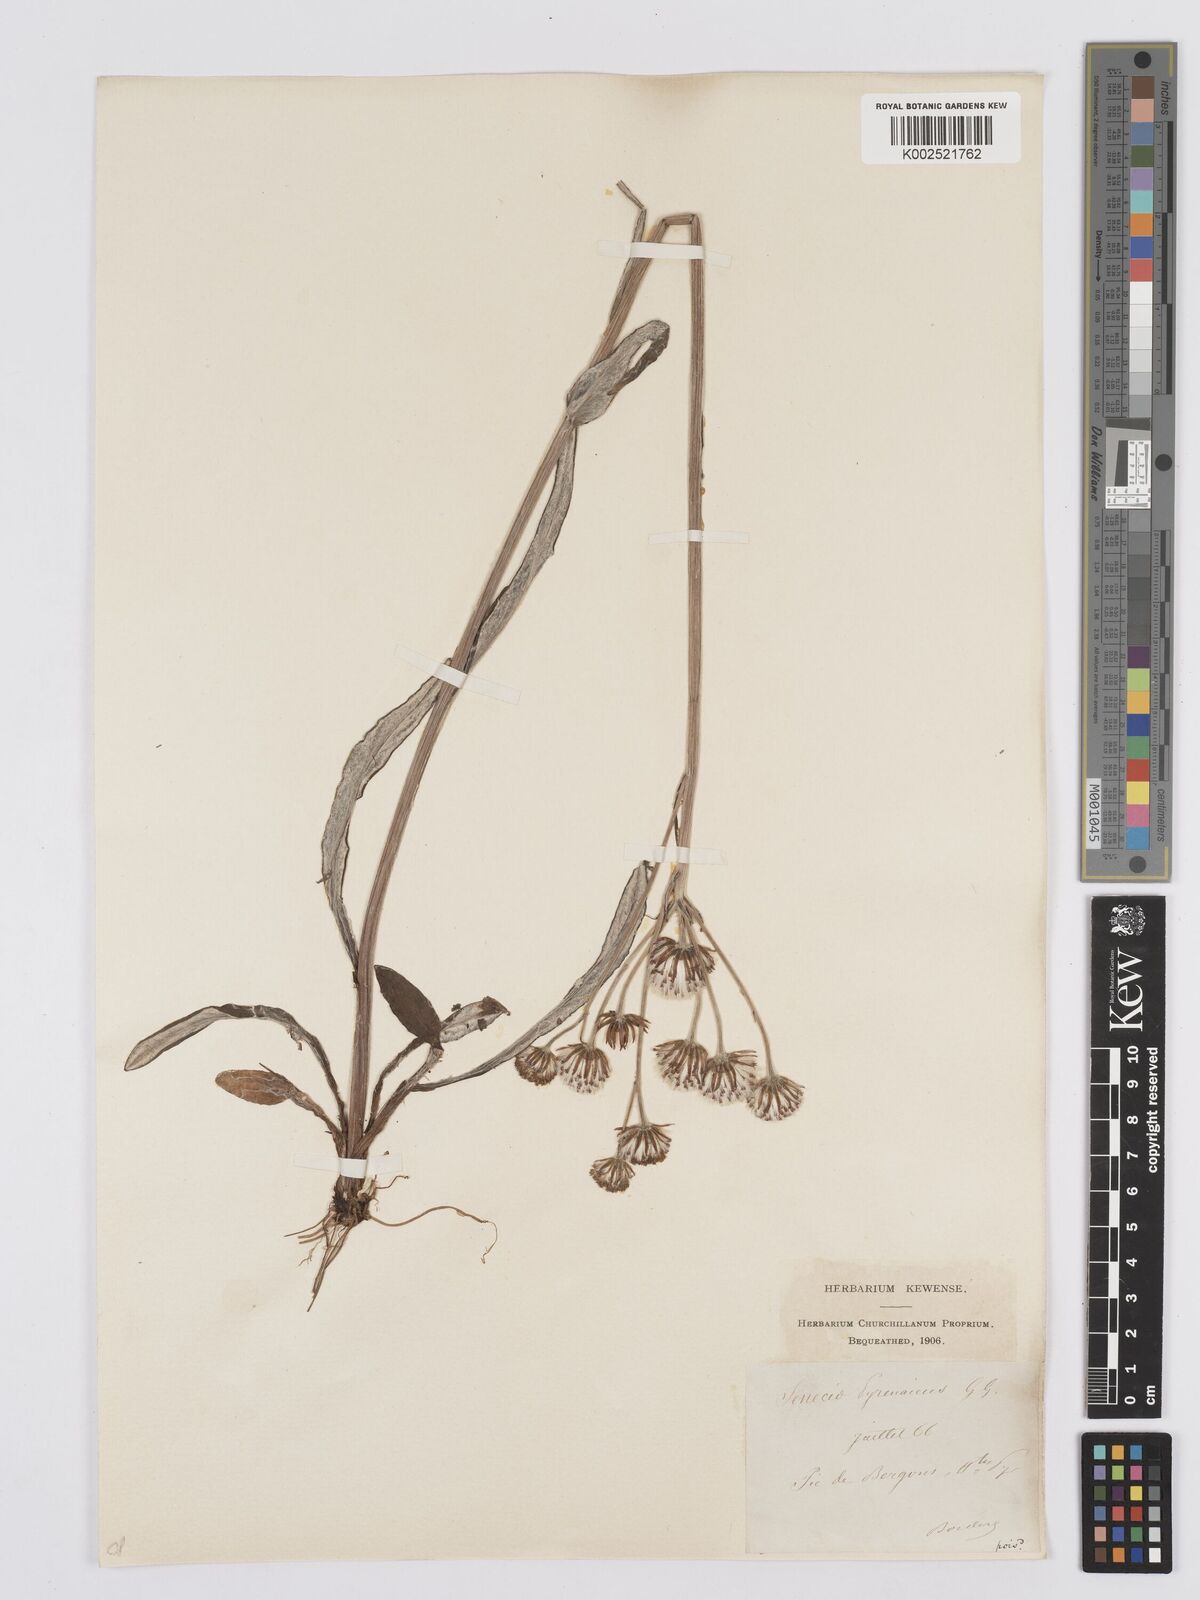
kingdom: Plantae
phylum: Tracheophyta
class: Magnoliopsida
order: Asterales
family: Asteraceae
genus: Tephroseris
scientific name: Tephroseris
